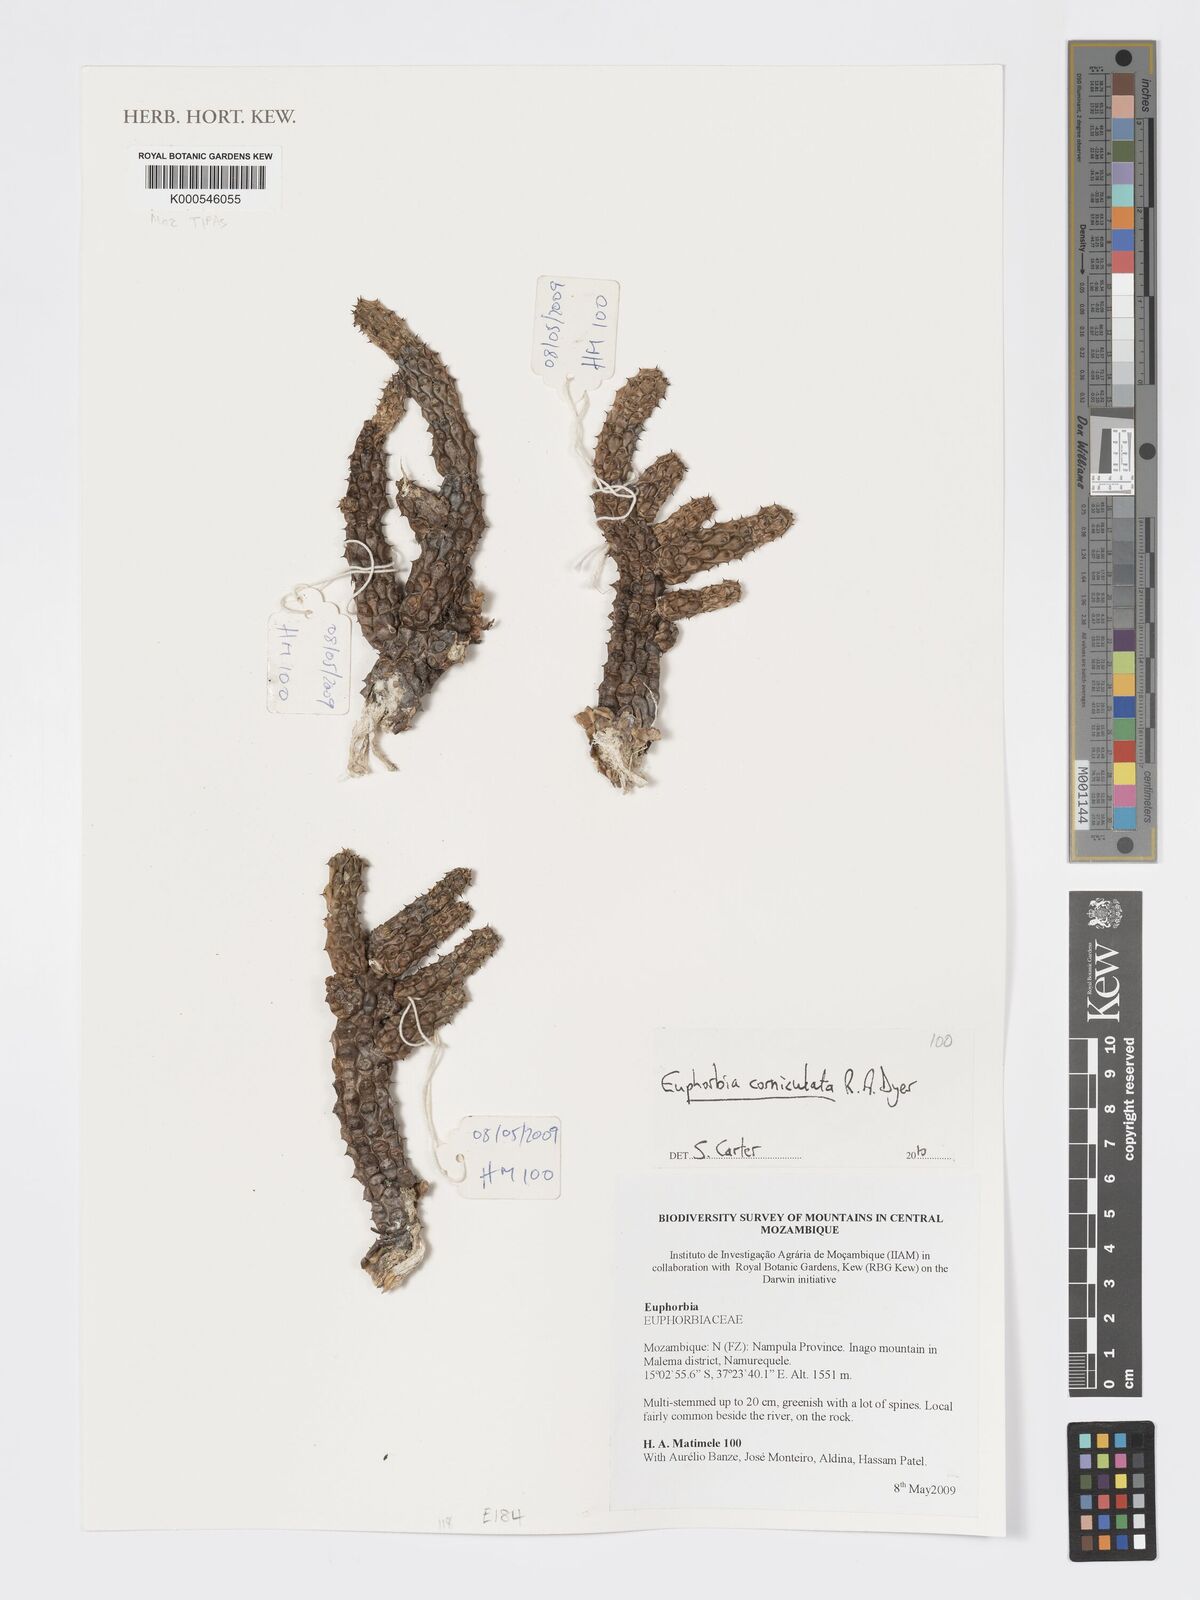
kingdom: Plantae
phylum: Tracheophyta
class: Magnoliopsida
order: Malpighiales
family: Euphorbiaceae
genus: Euphorbia
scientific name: Euphorbia corniculata
